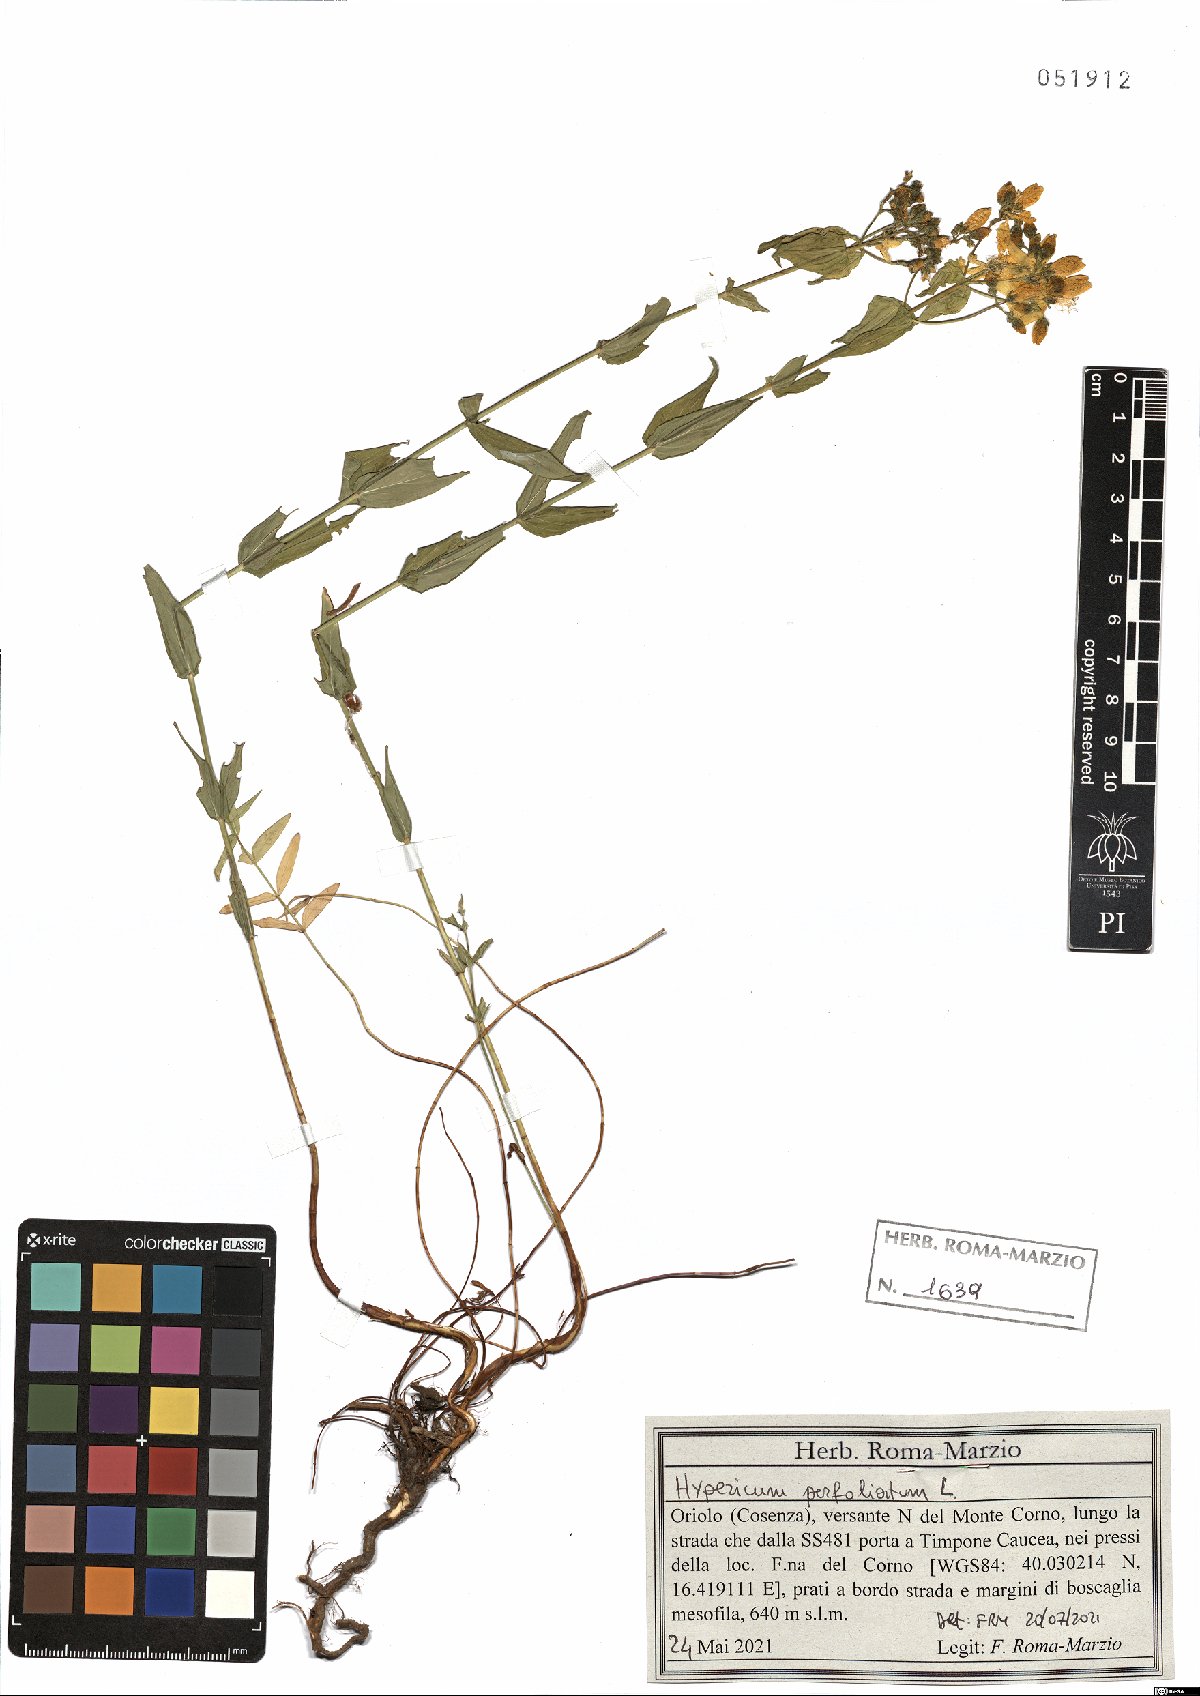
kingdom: Plantae
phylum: Tracheophyta
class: Magnoliopsida
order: Malpighiales
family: Hypericaceae
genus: Hypericum
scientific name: Hypericum perfoliatum
